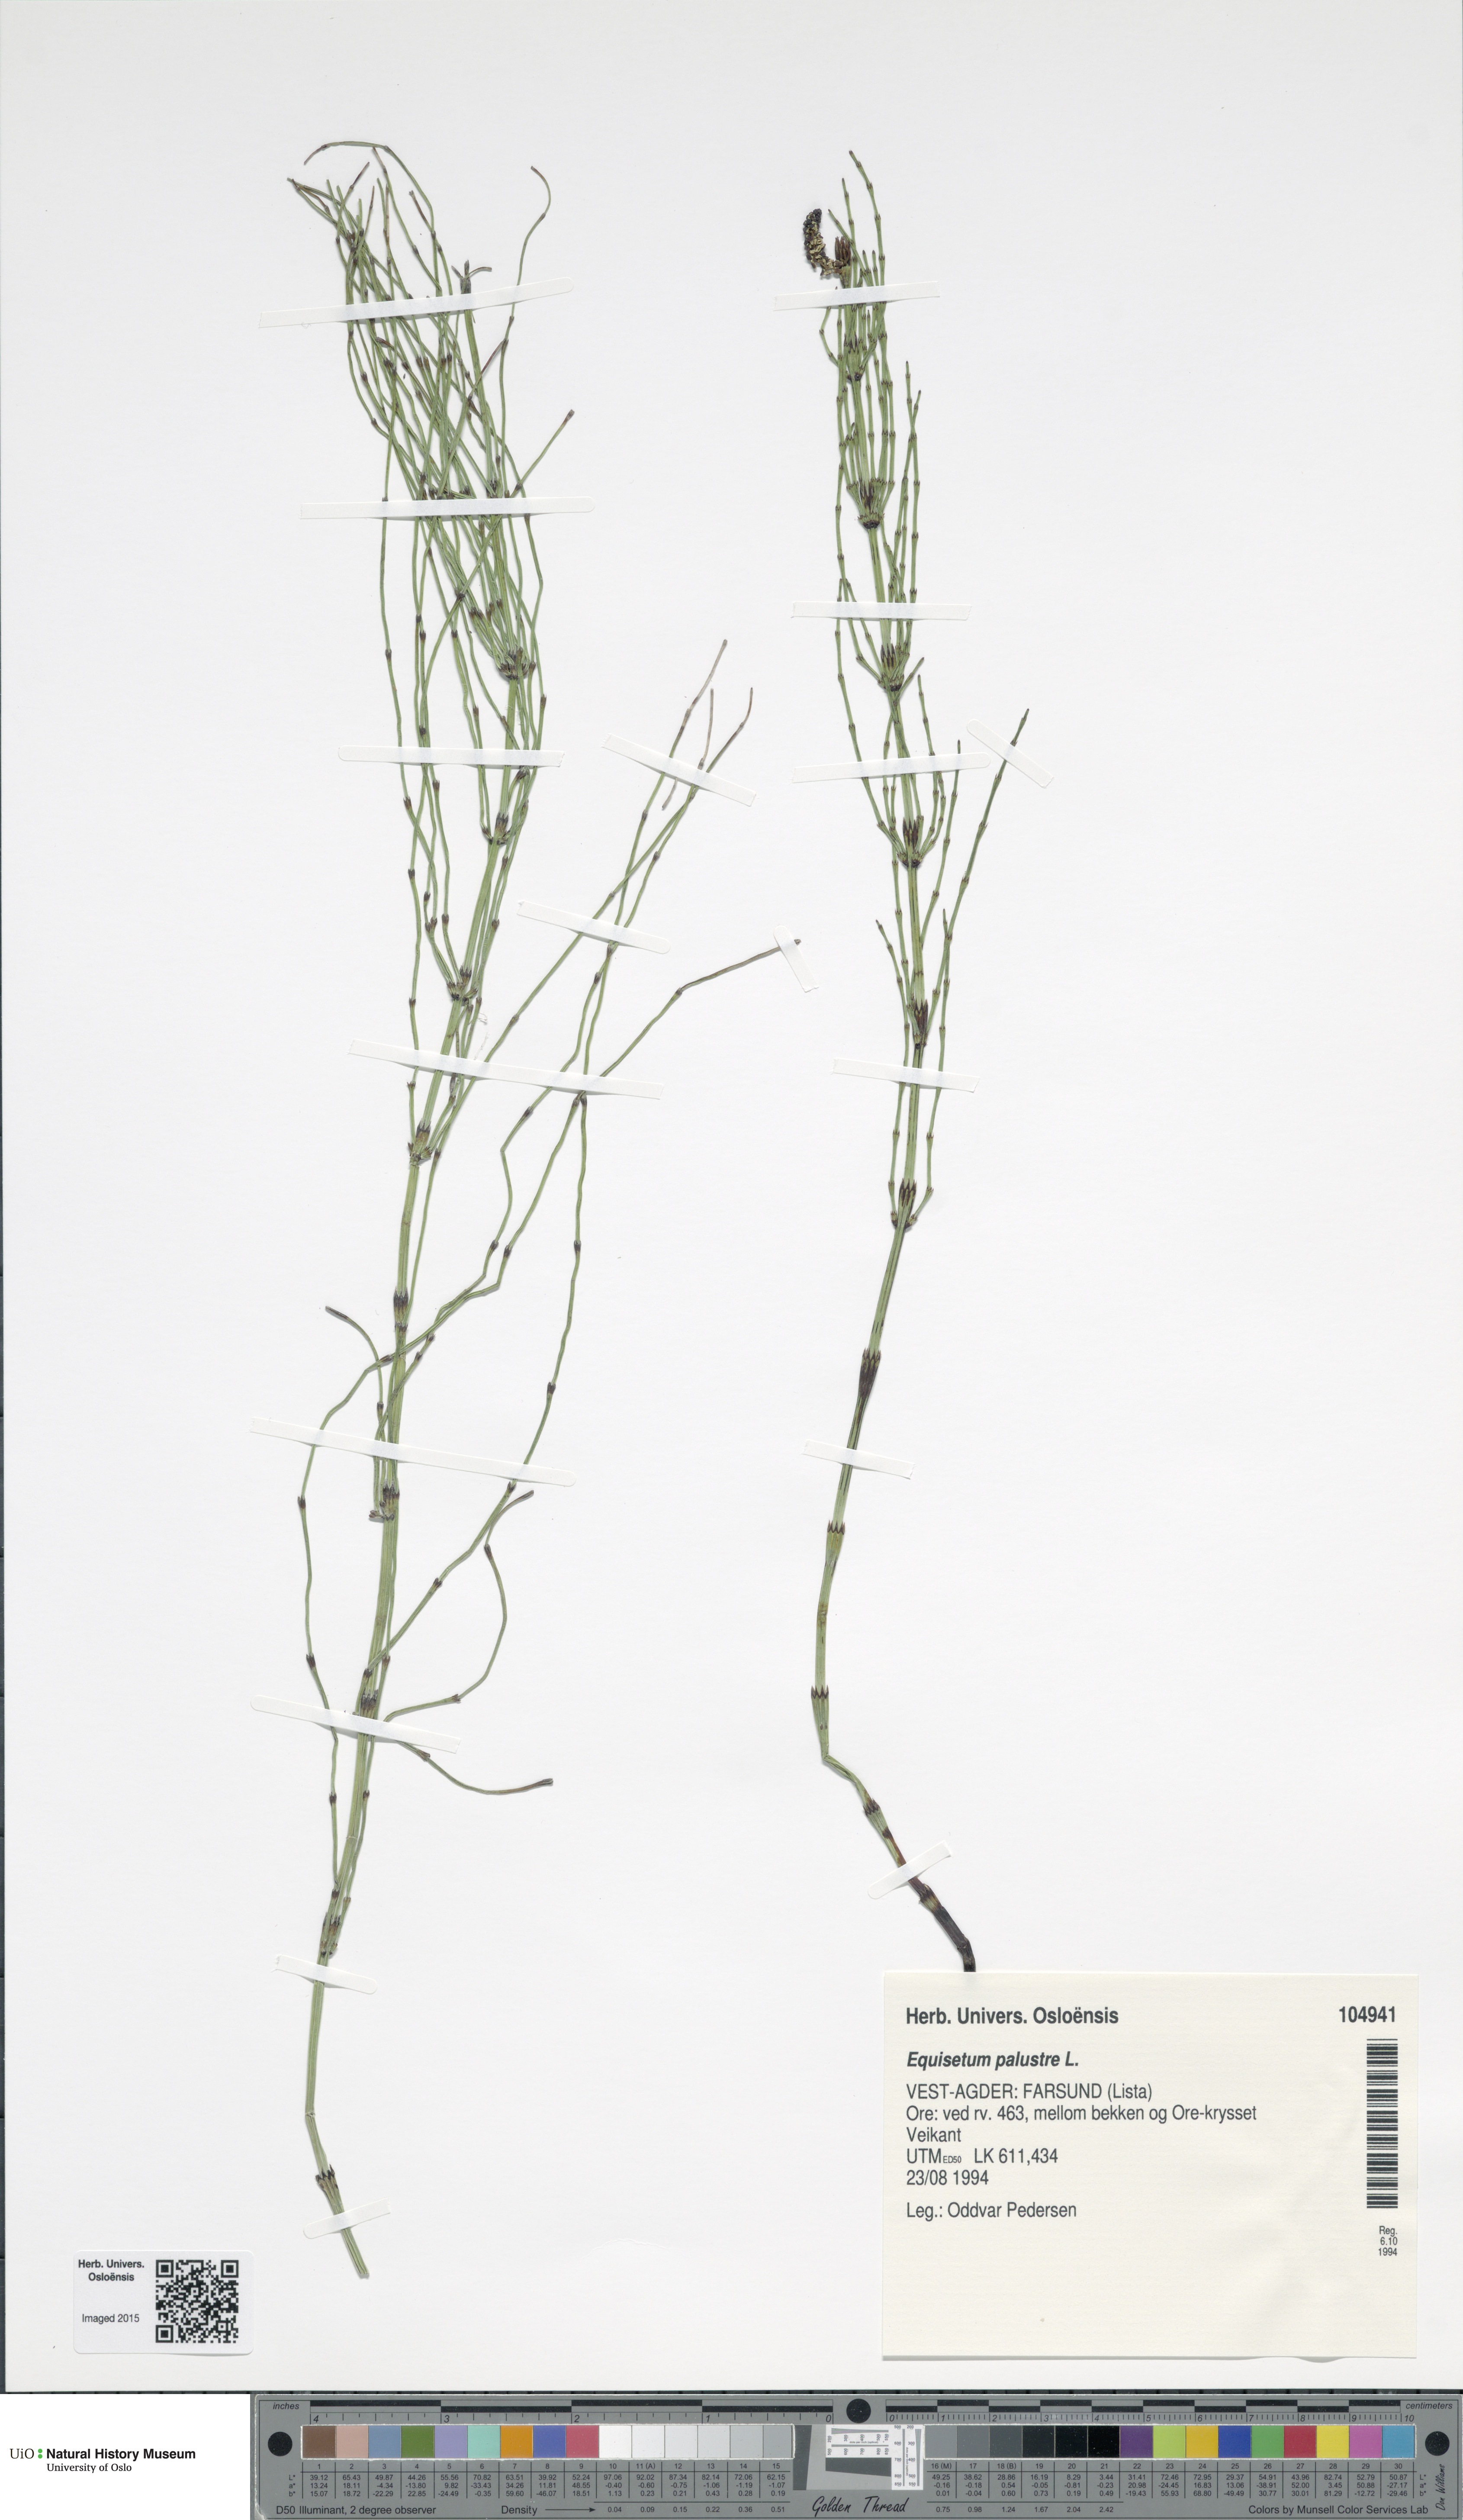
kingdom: Plantae
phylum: Tracheophyta
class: Polypodiopsida
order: Equisetales
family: Equisetaceae
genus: Equisetum
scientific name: Equisetum palustre
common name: Marsh horsetail
